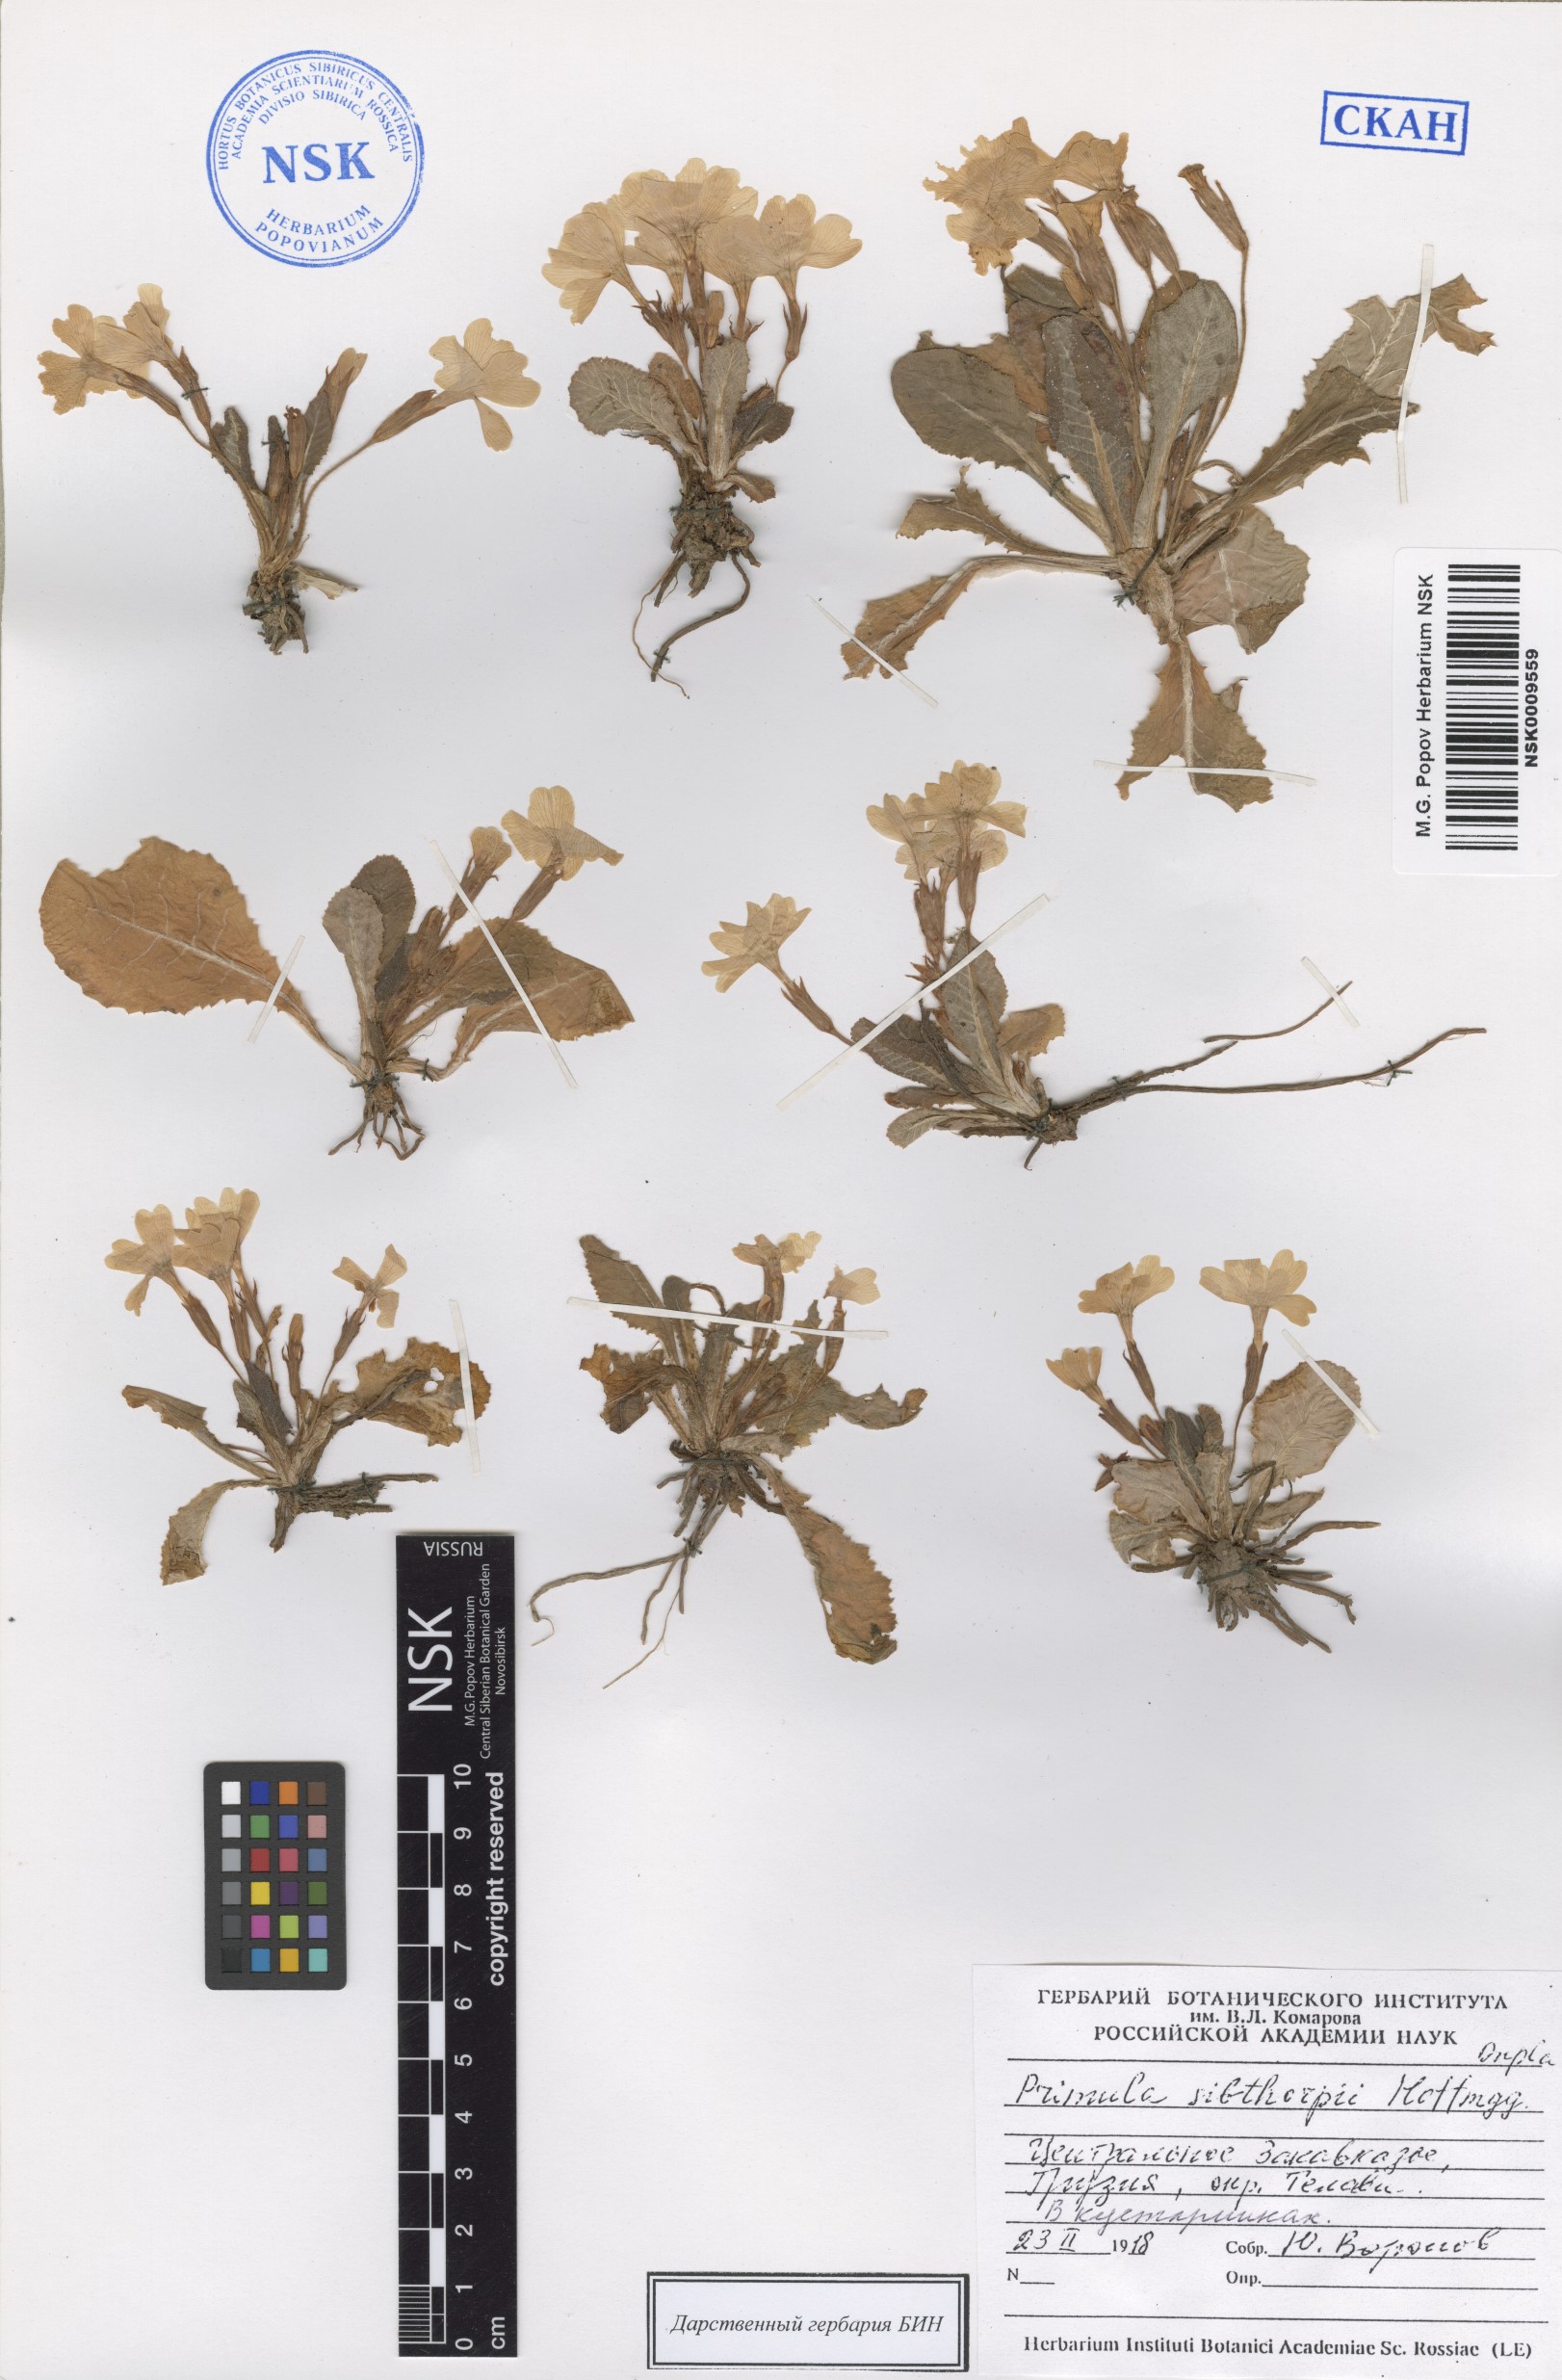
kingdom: Plantae
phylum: Tracheophyta
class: Magnoliopsida
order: Ericales
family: Primulaceae
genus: Primula
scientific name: Primula vulgaris
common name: Primrose
